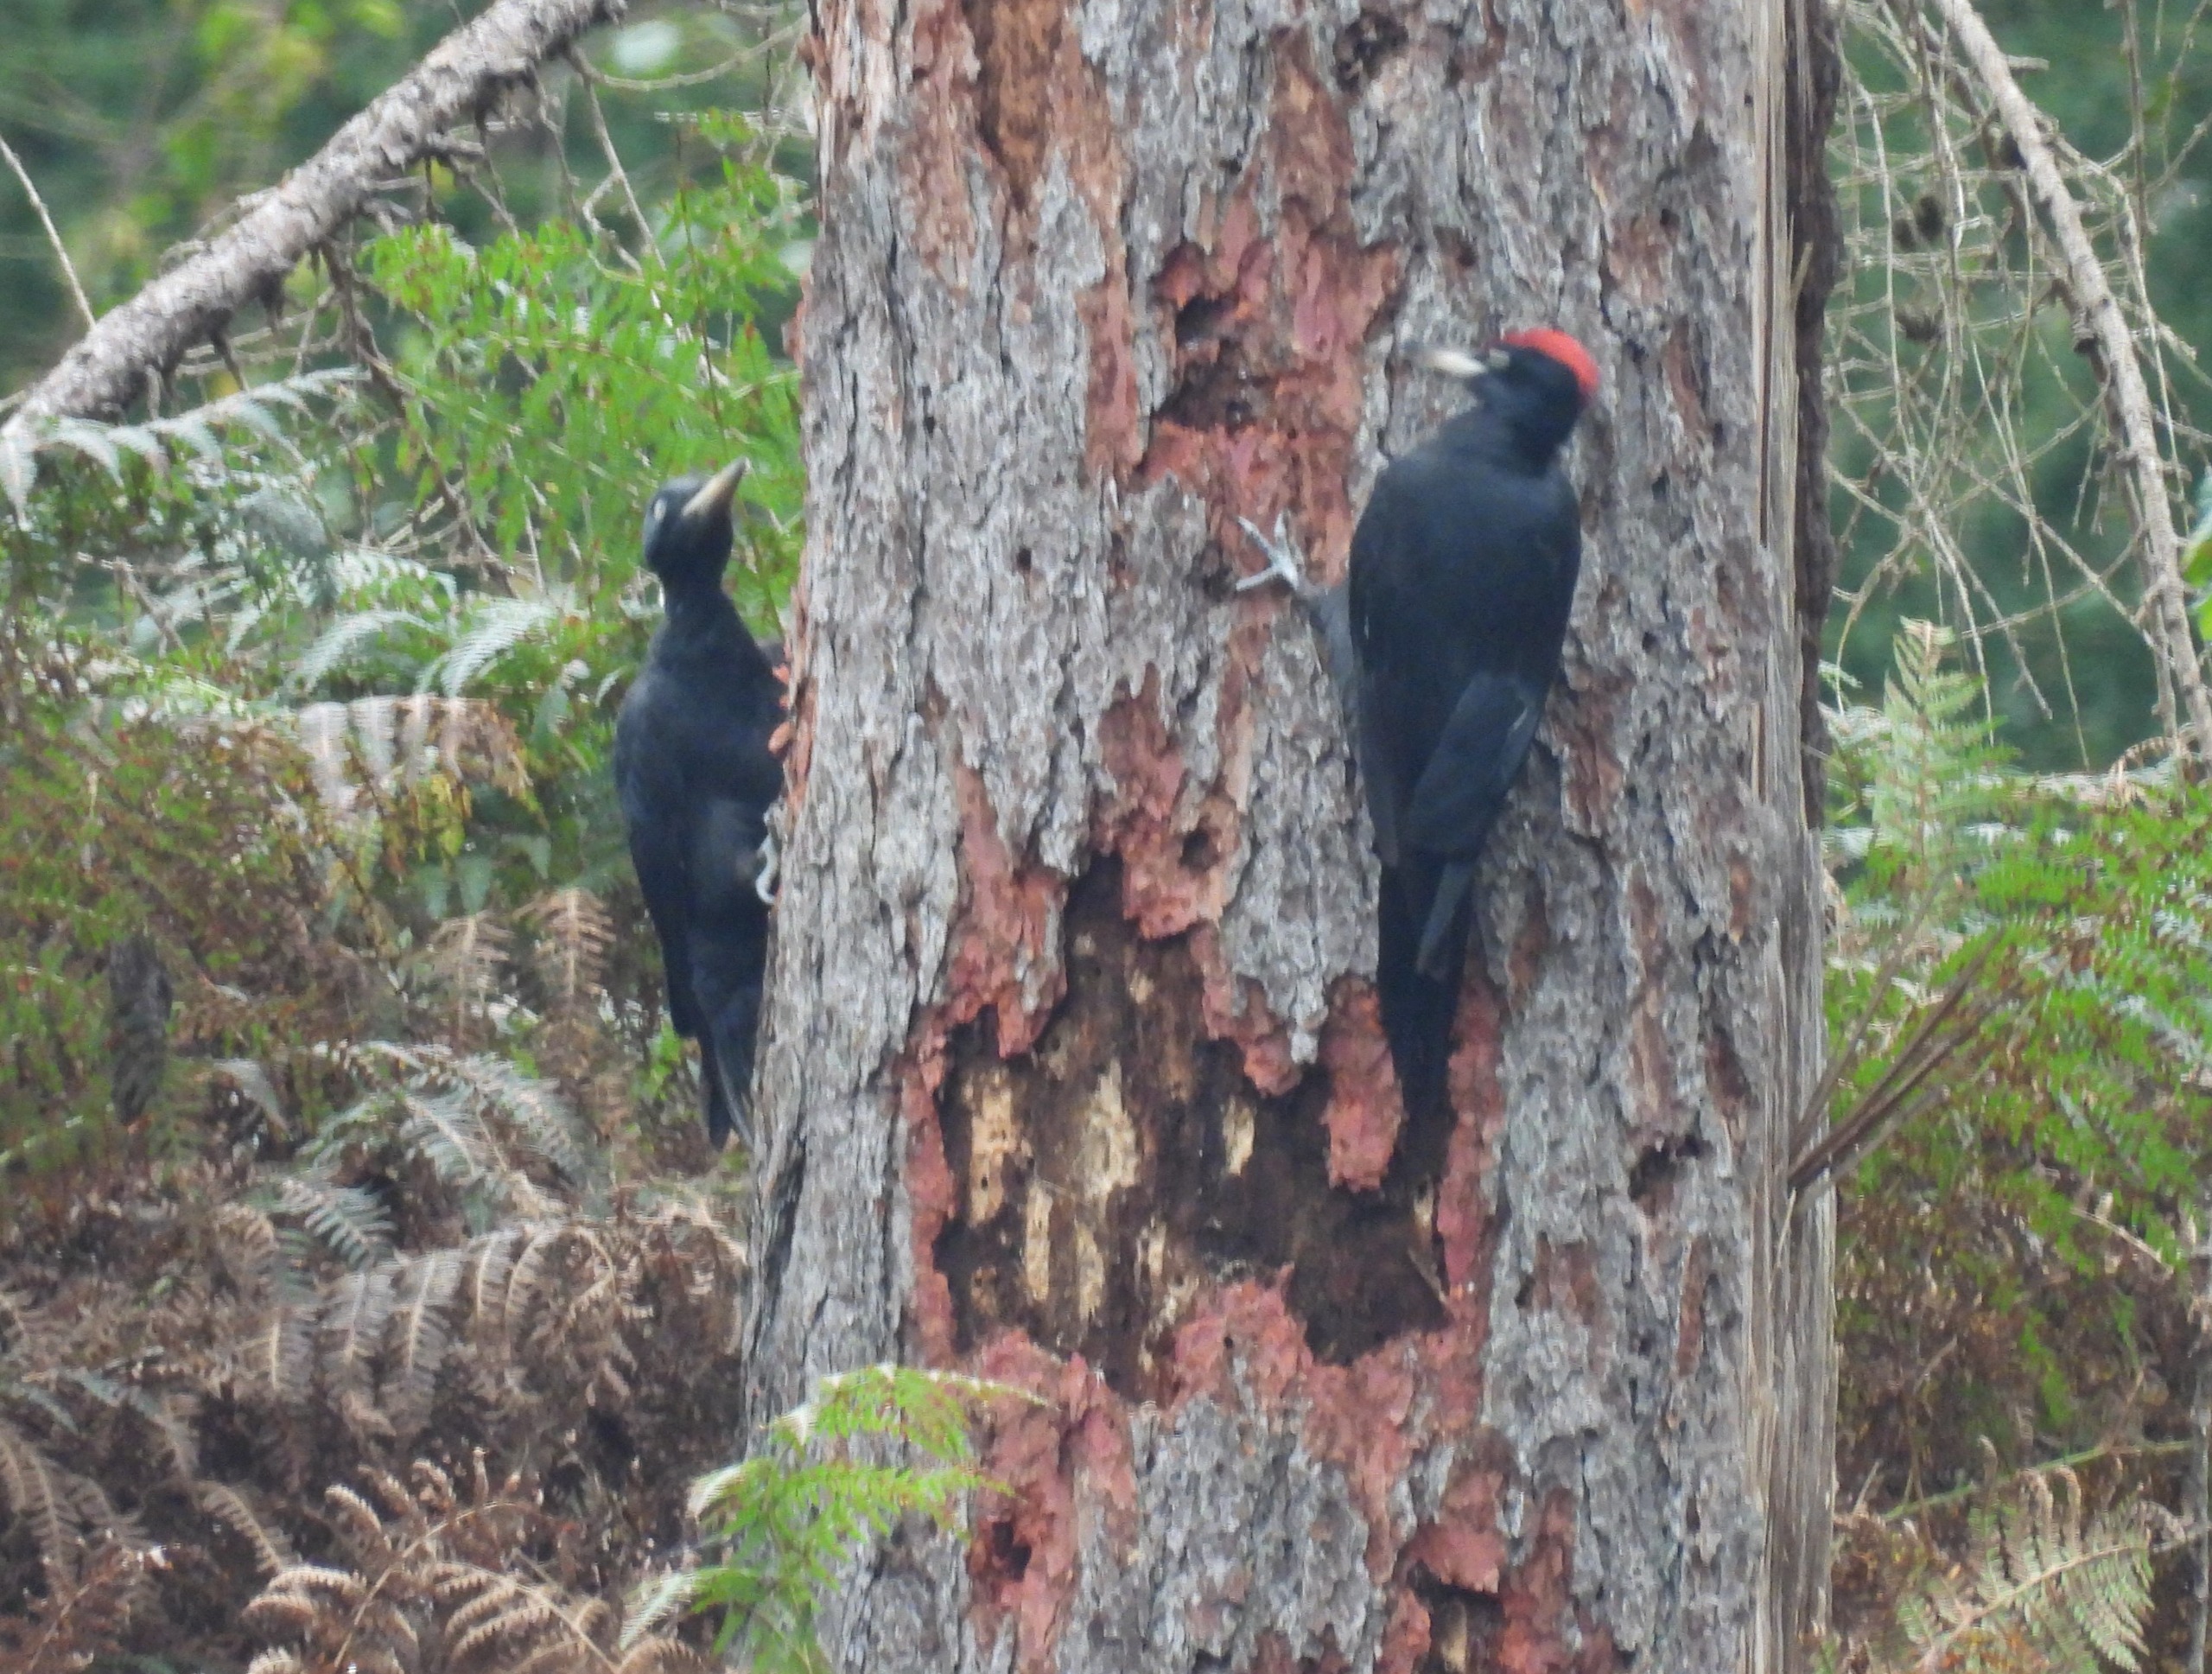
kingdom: Animalia
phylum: Chordata
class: Aves
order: Piciformes
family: Picidae
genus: Dryocopus
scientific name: Dryocopus martius
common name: Sortspætte
